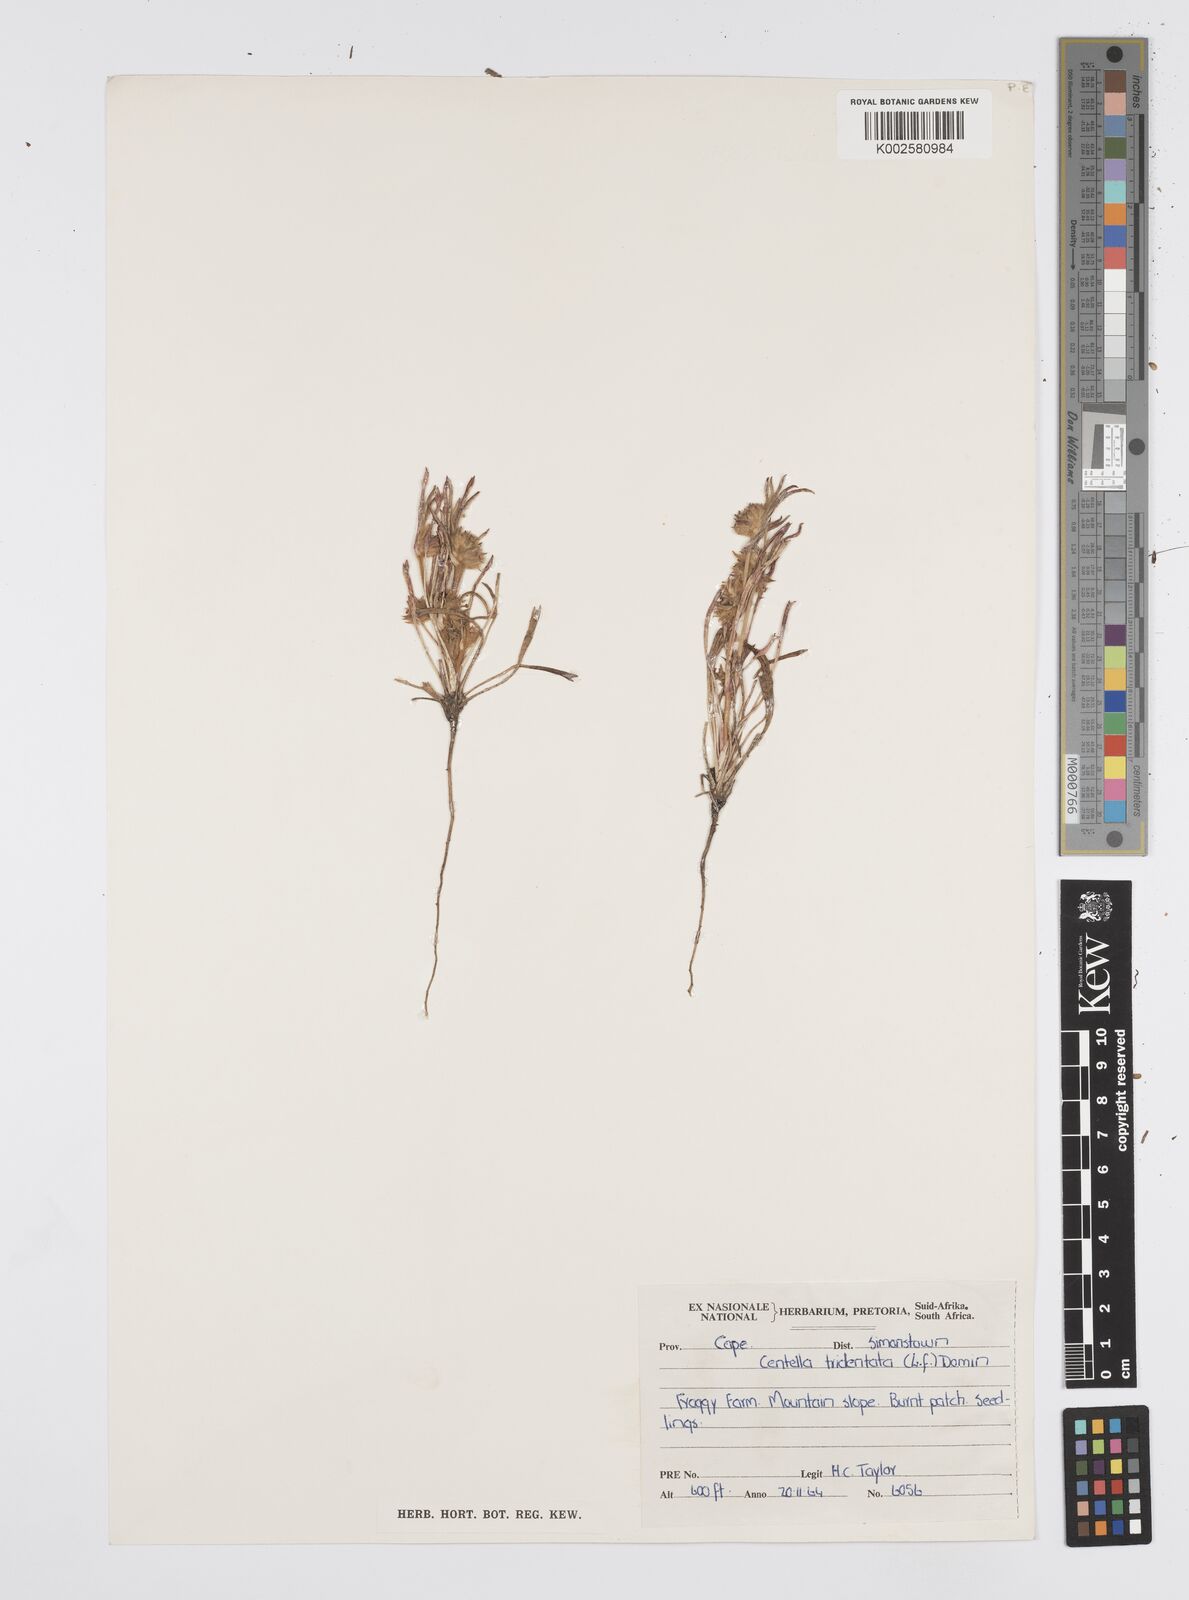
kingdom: Plantae
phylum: Tracheophyta
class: Magnoliopsida
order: Apiales
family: Apiaceae
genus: Centella
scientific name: Centella tridentata
